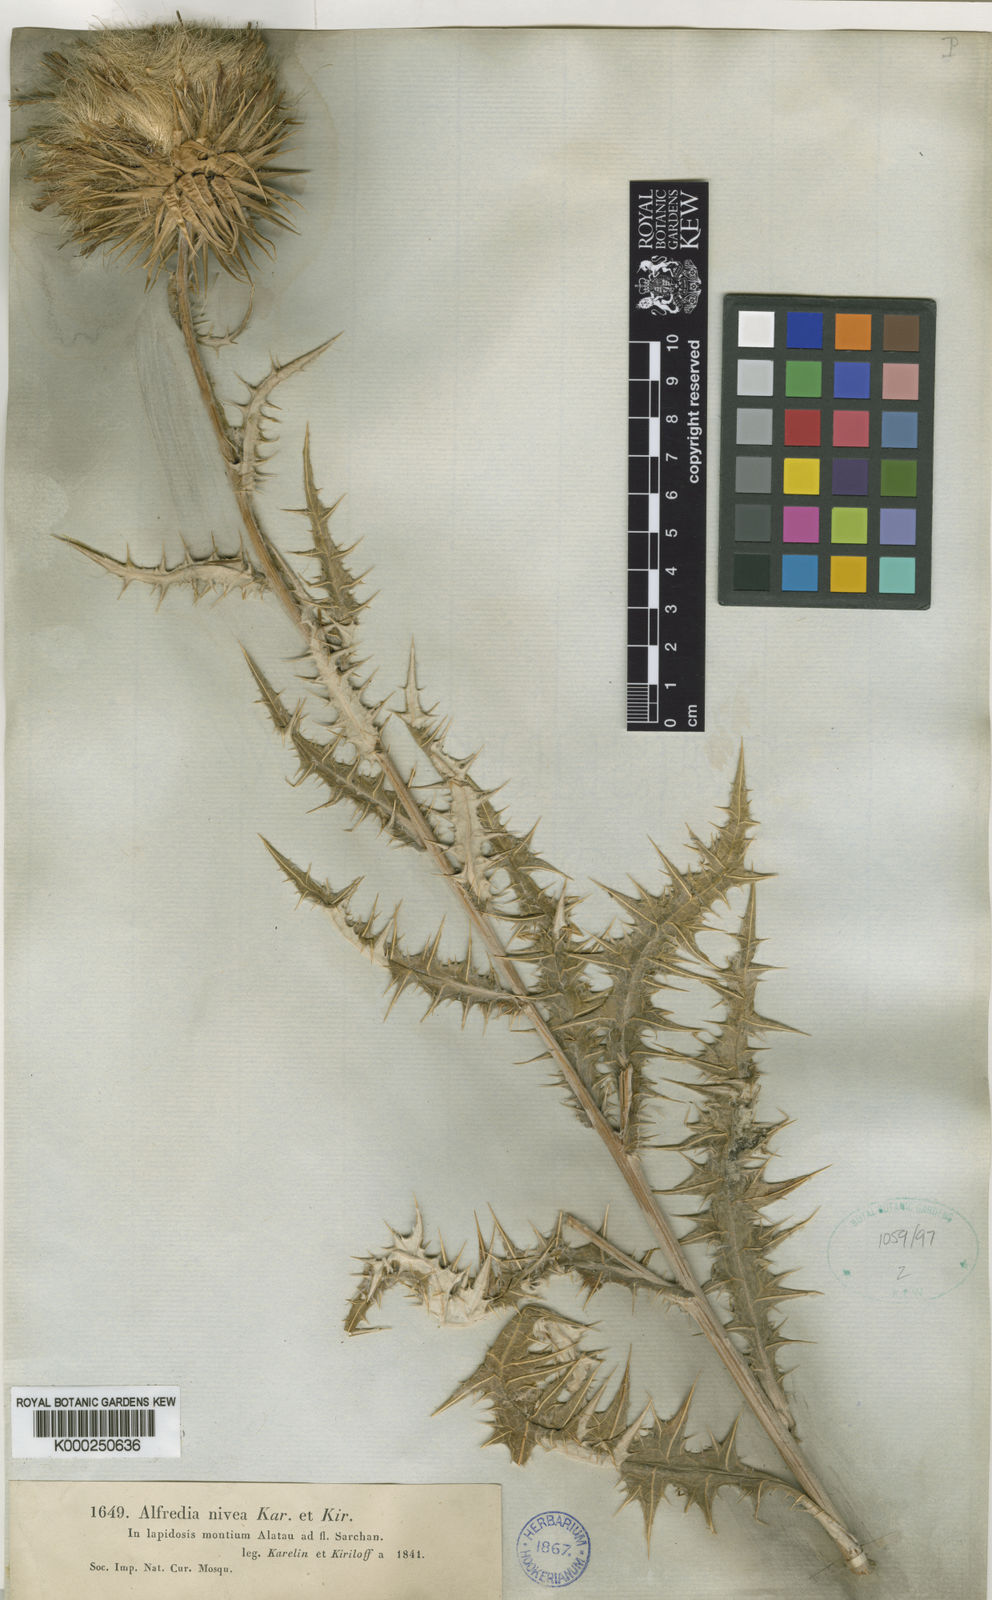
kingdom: Plantae
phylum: Tracheophyta
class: Magnoliopsida
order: Asterales
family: Asteraceae
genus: Alfredia
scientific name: Alfredia nivea
